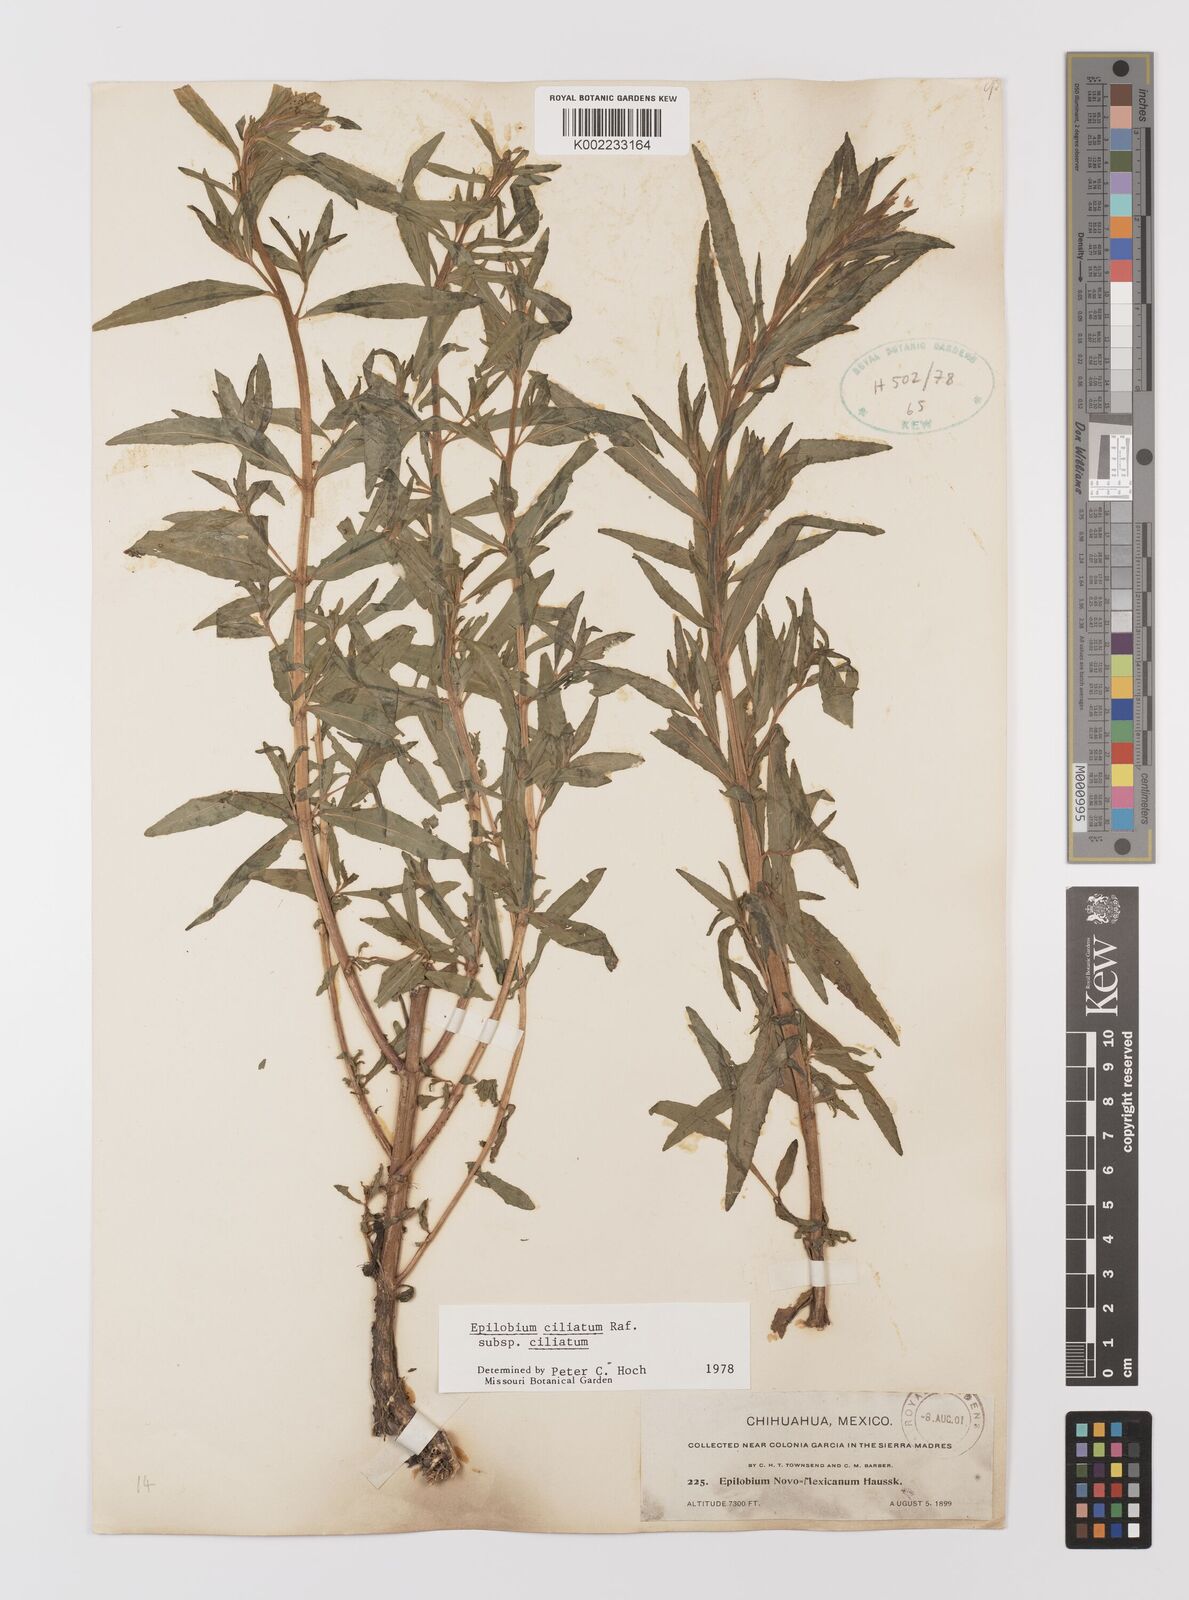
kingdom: Plantae
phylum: Tracheophyta
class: Magnoliopsida
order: Myrtales
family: Onagraceae
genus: Epilobium
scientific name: Epilobium ciliatum
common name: American willowherb
